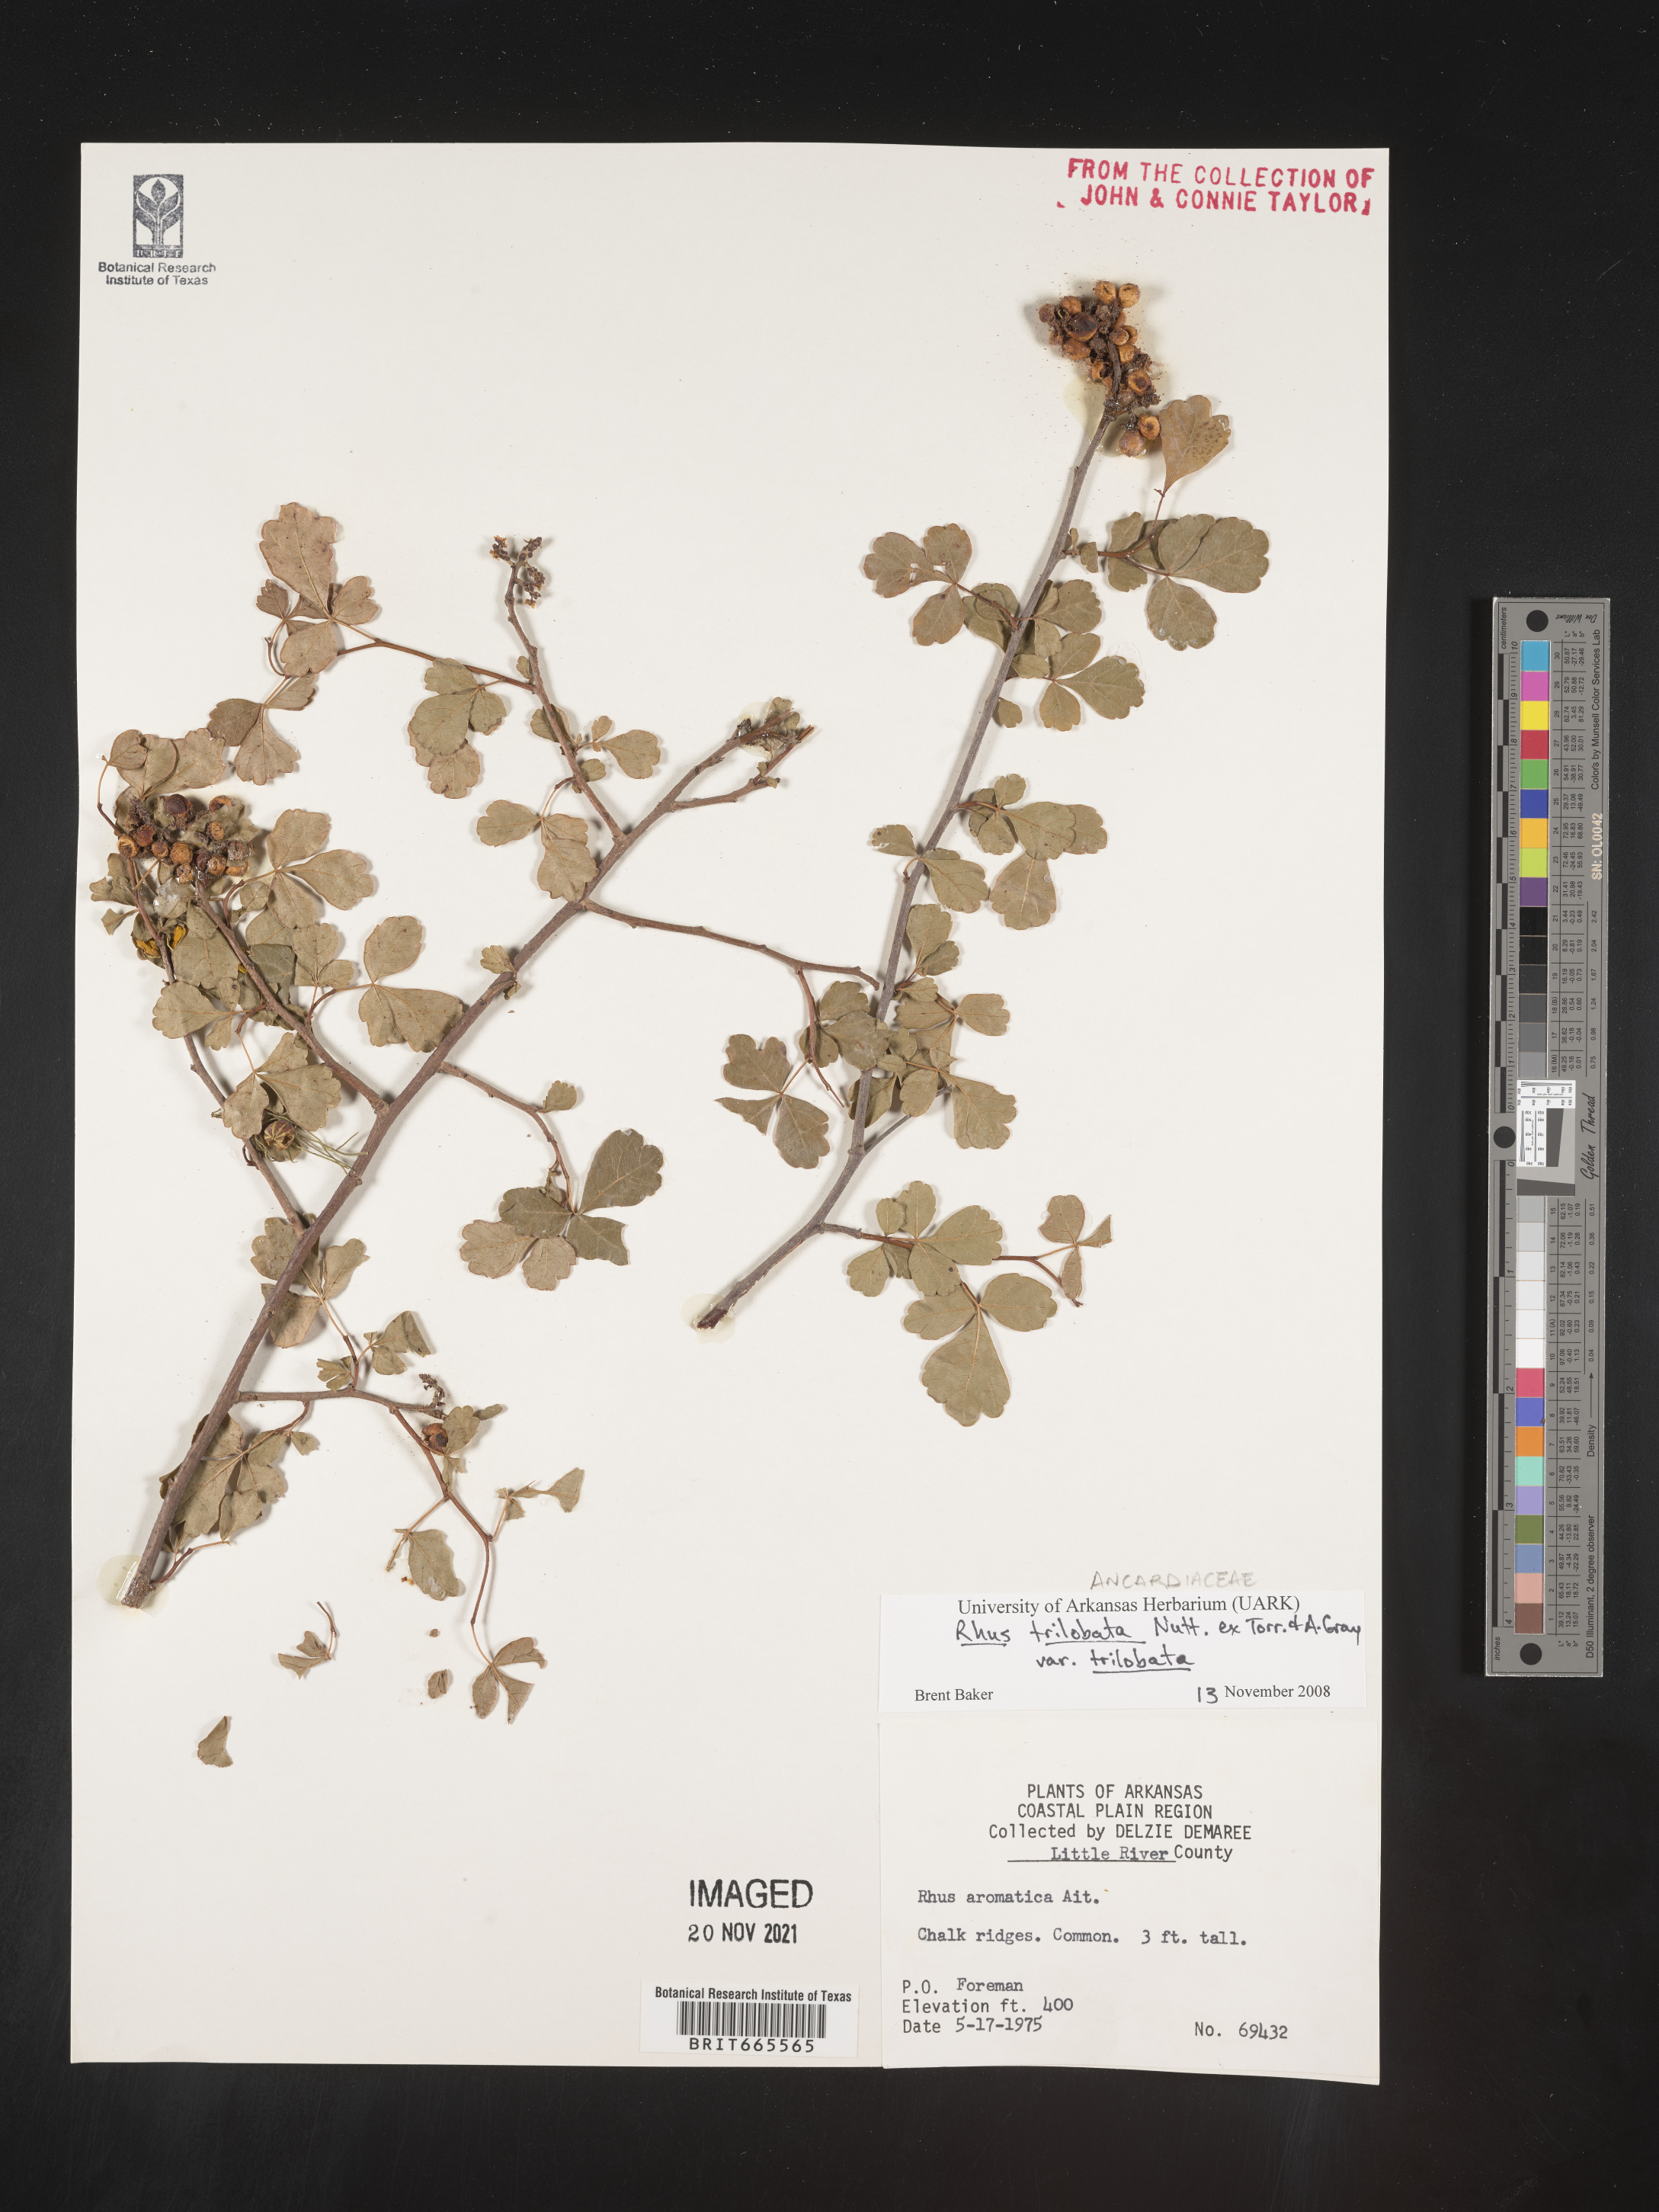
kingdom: Plantae
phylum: Tracheophyta
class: Magnoliopsida
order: Sapindales
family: Anacardiaceae
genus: Rhus
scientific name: Rhus aromatica
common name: Aromatic sumac
